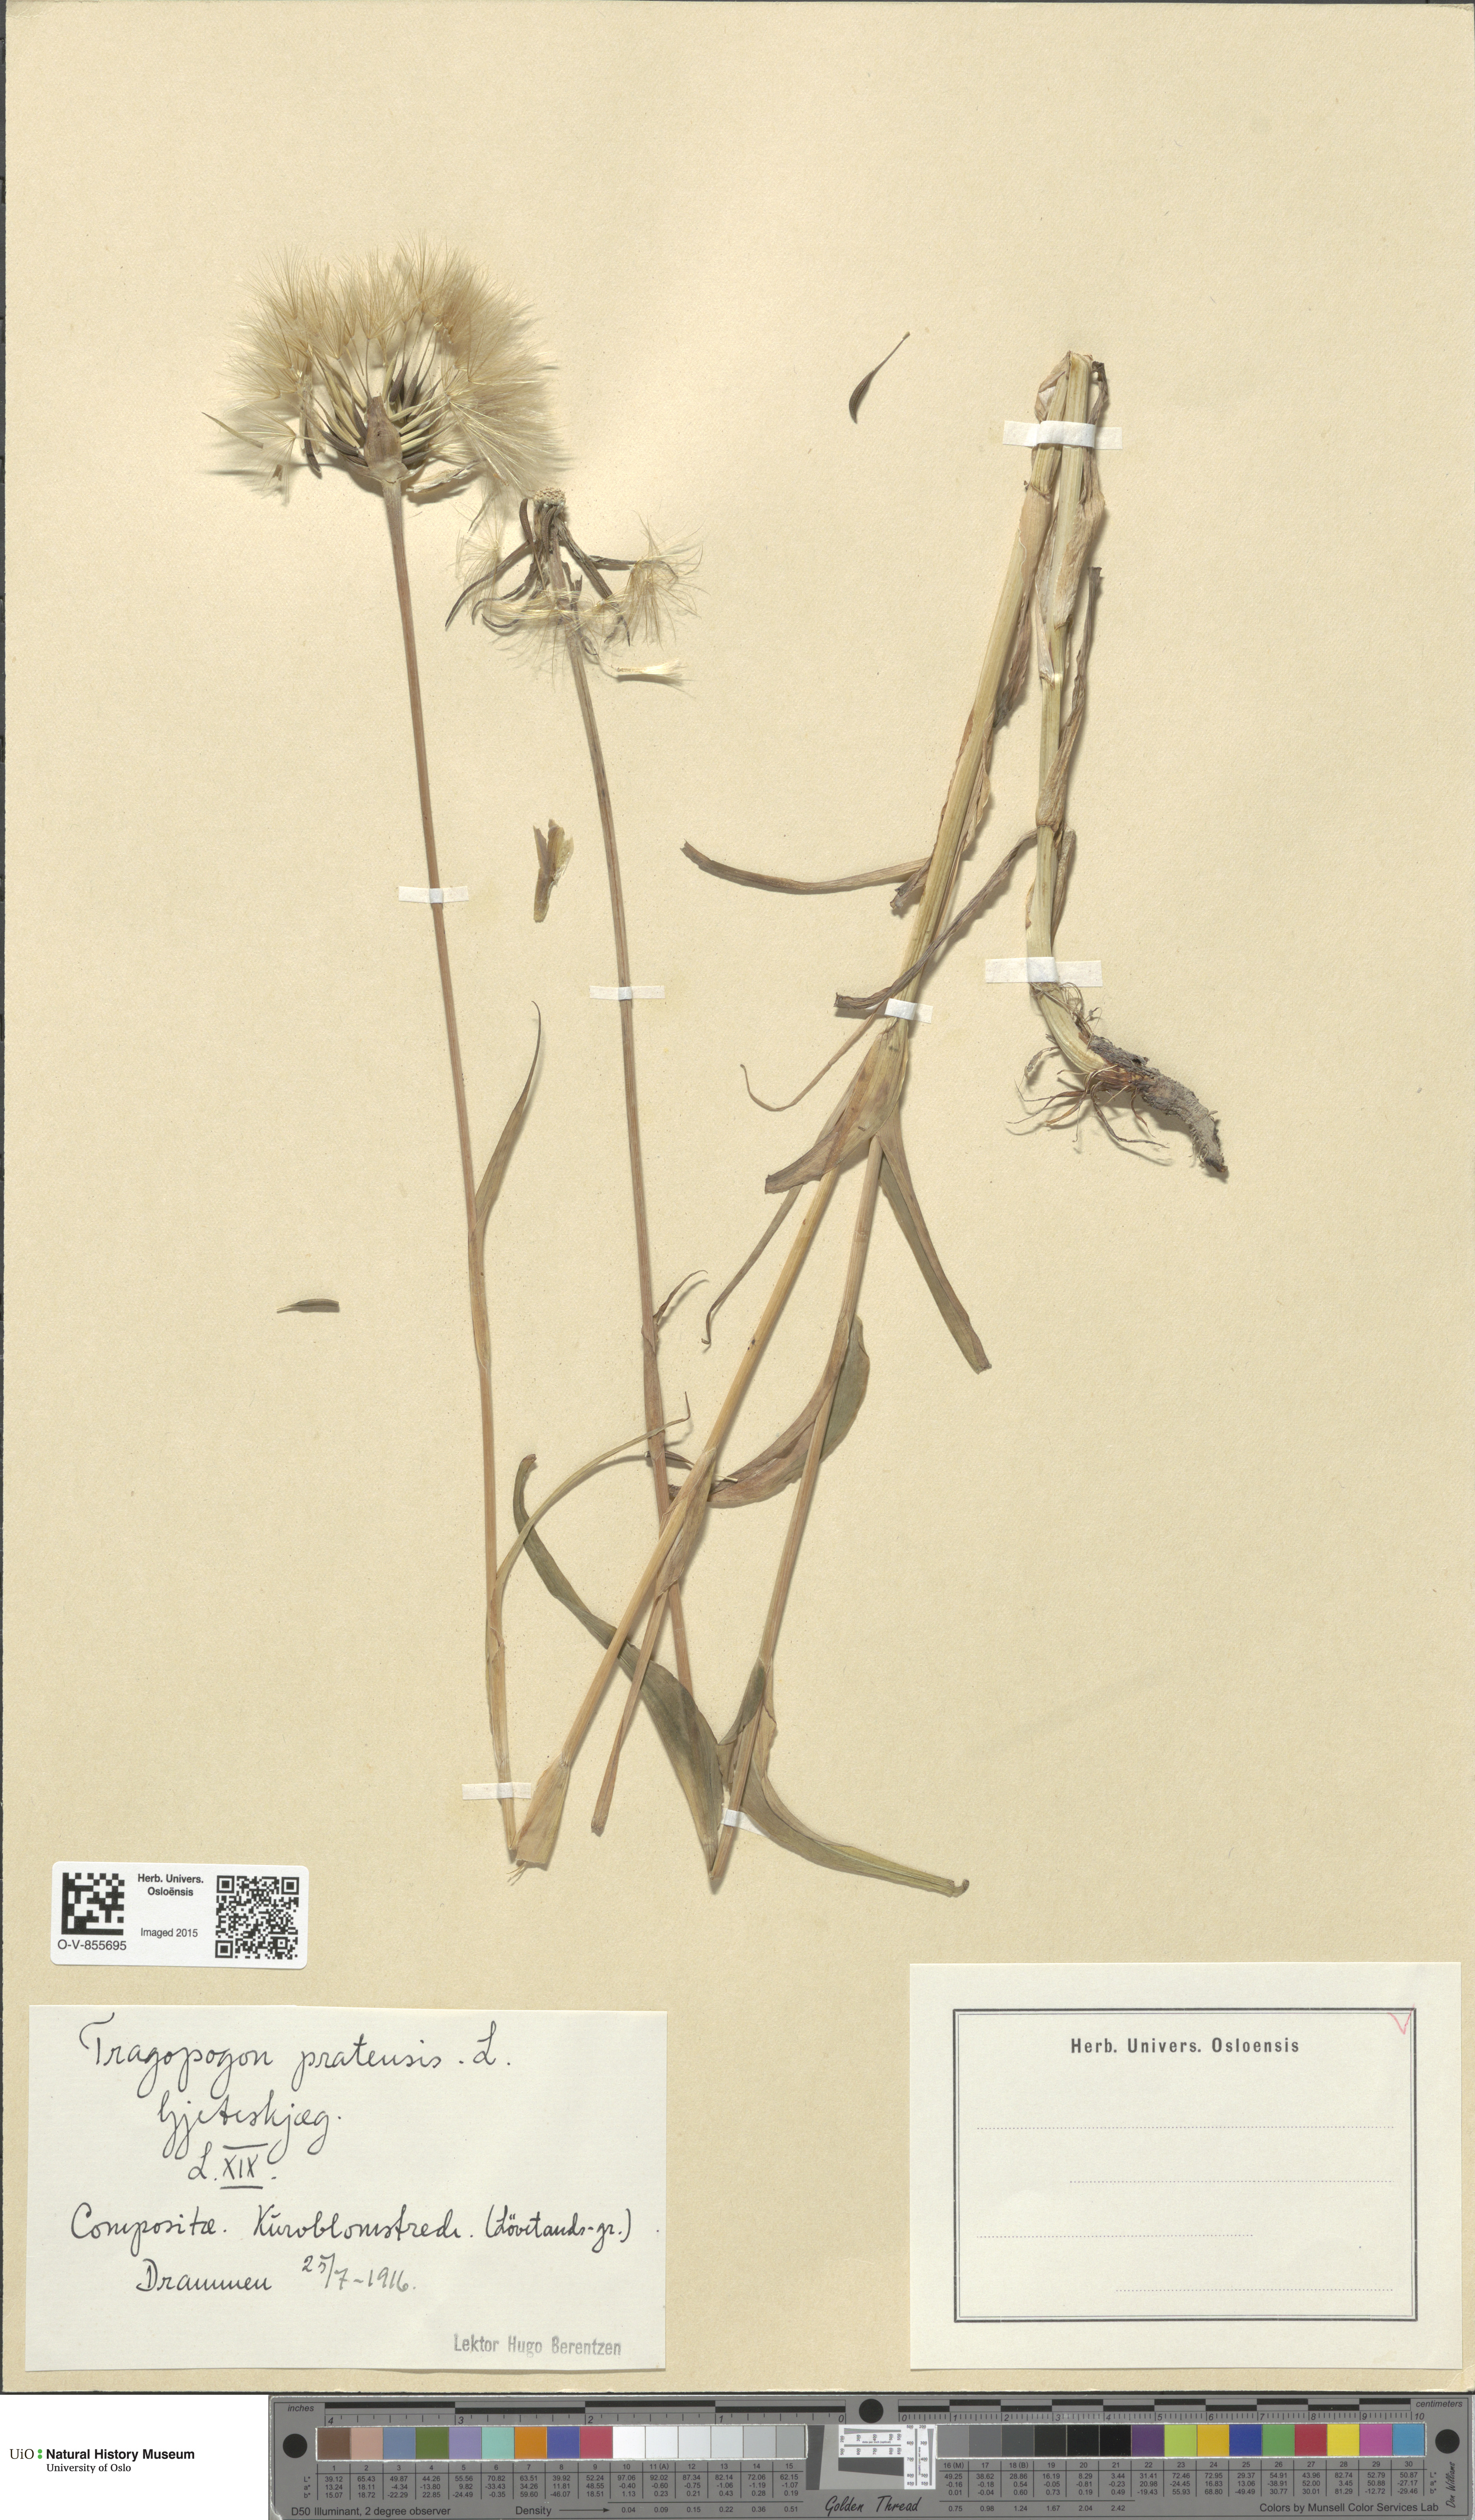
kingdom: Plantae
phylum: Tracheophyta
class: Magnoliopsida
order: Asterales
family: Asteraceae
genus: Tragopogon
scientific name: Tragopogon pratensis
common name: Goat's-beard
